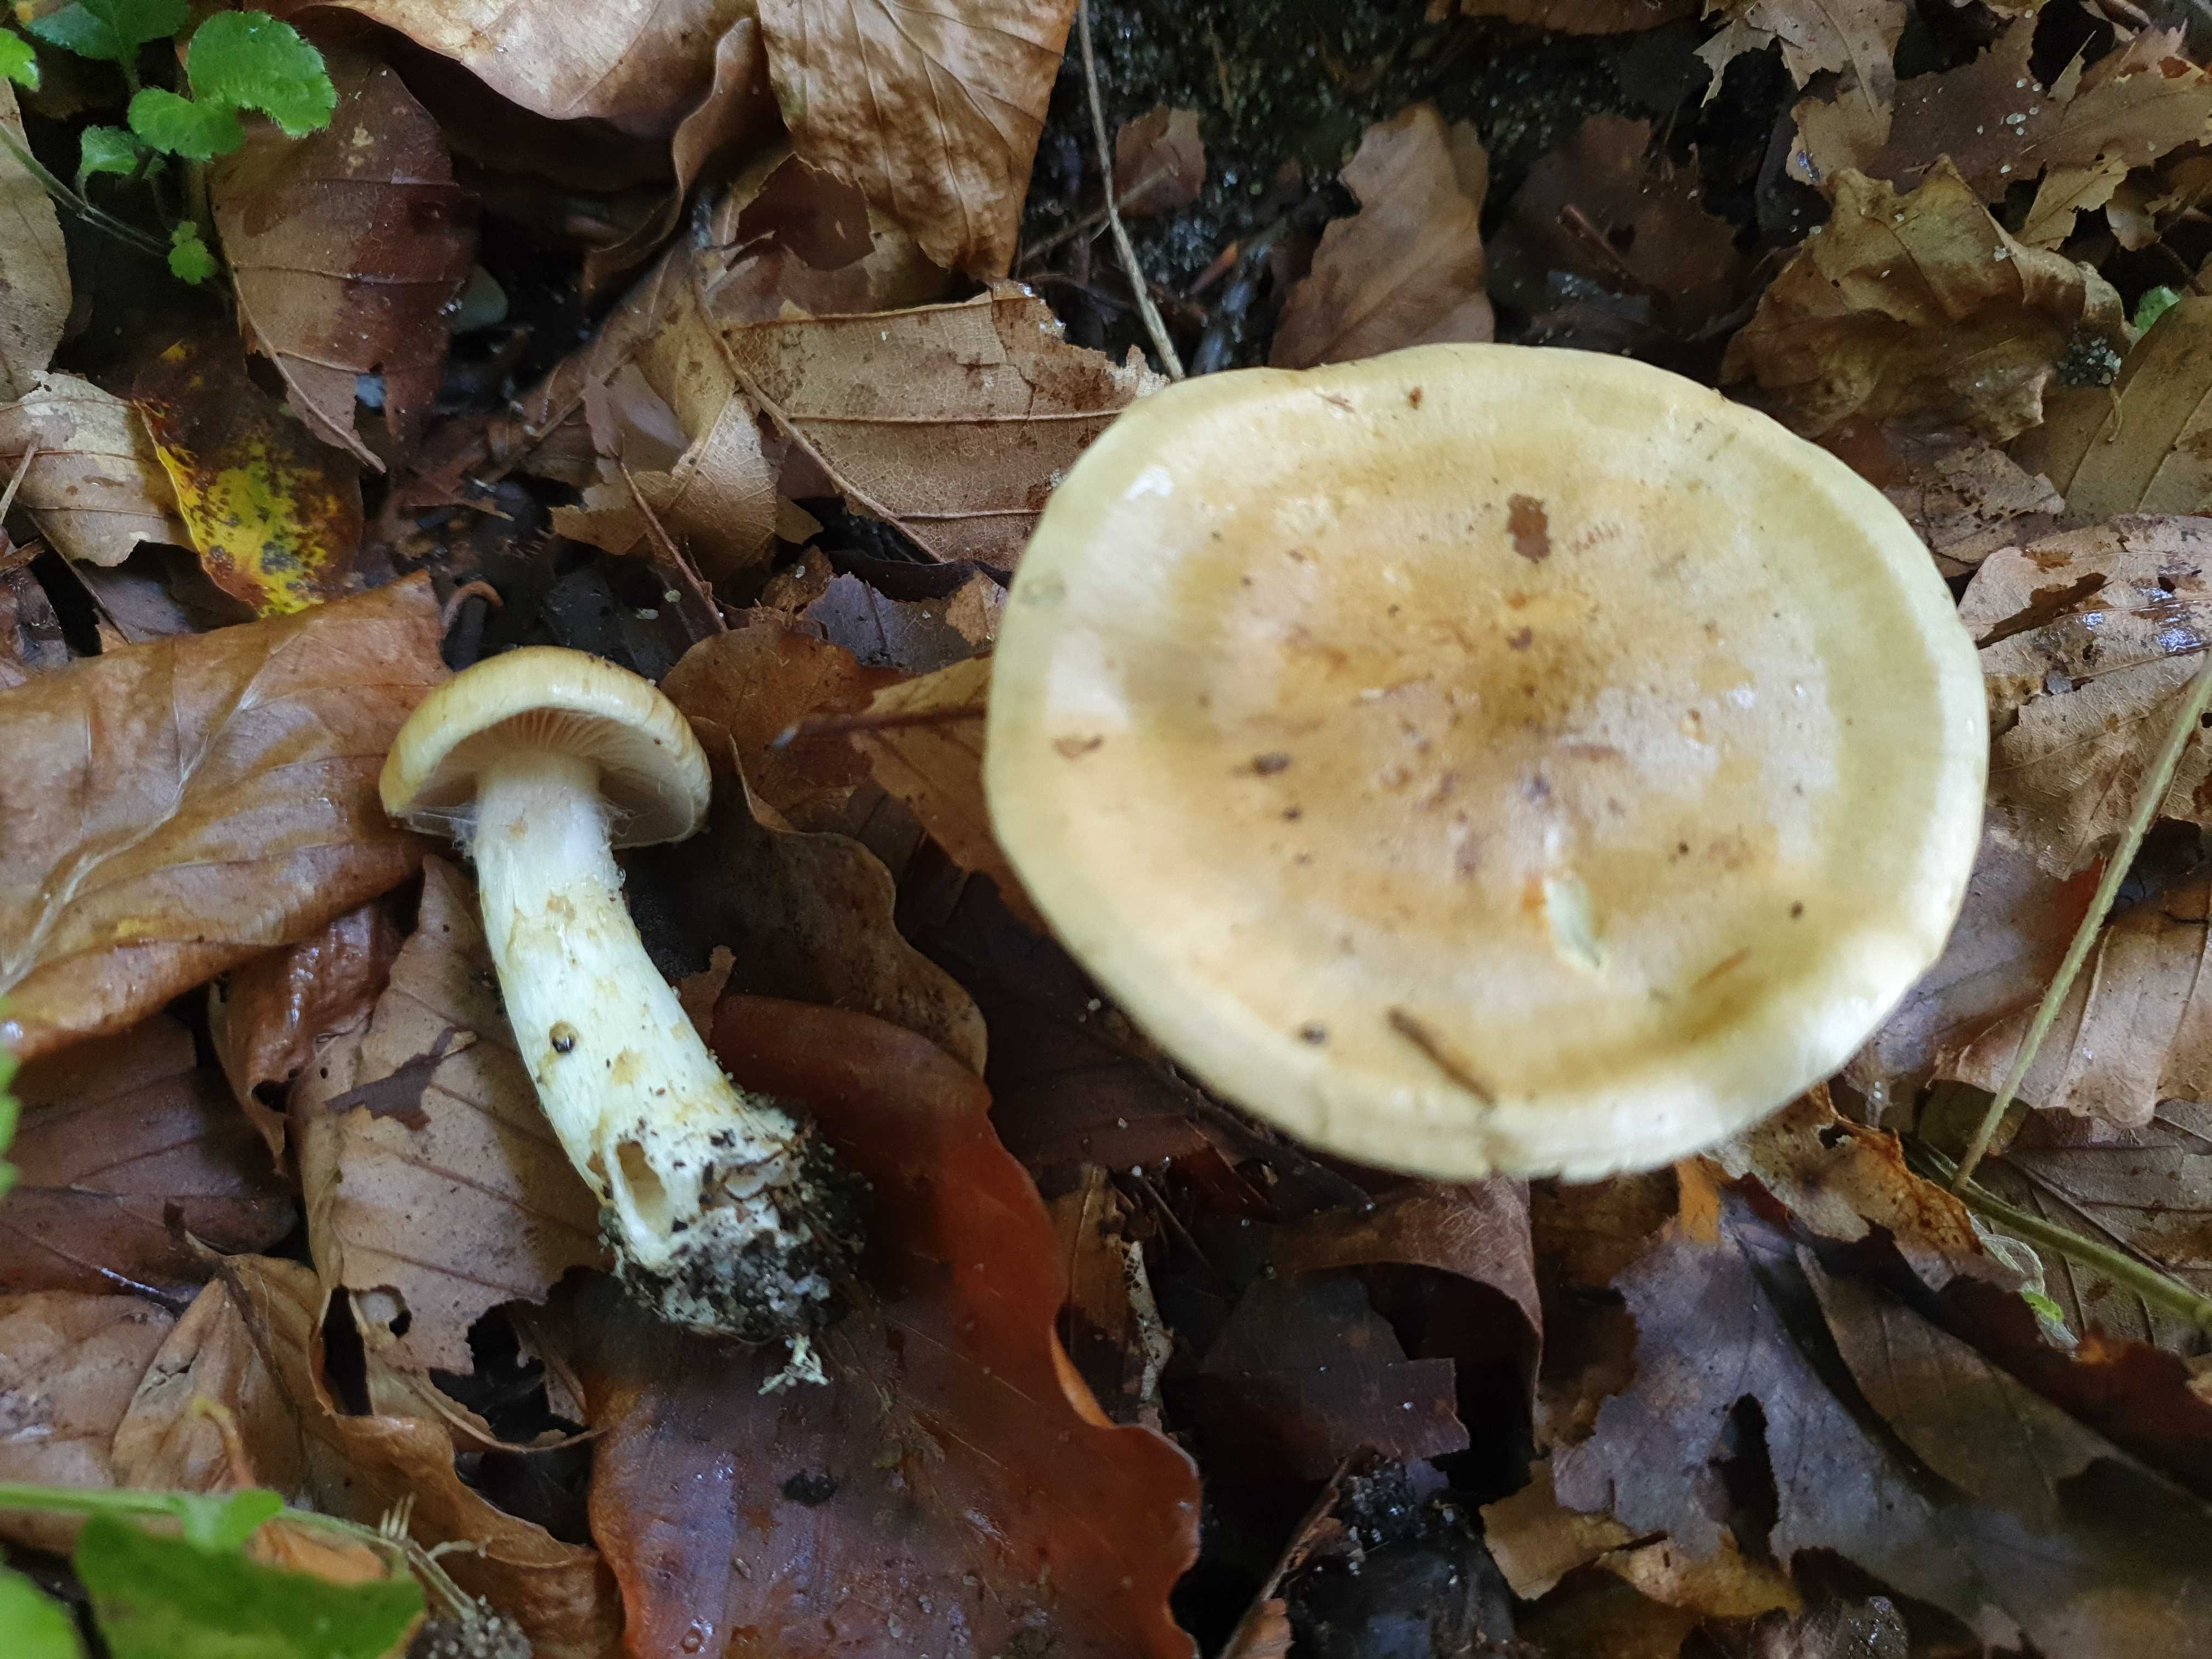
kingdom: Fungi
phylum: Basidiomycota
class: Agaricomycetes
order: Agaricales
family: Cortinariaceae
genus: Phlegmacium
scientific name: Phlegmacium cliduchus
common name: majs-slørhat
